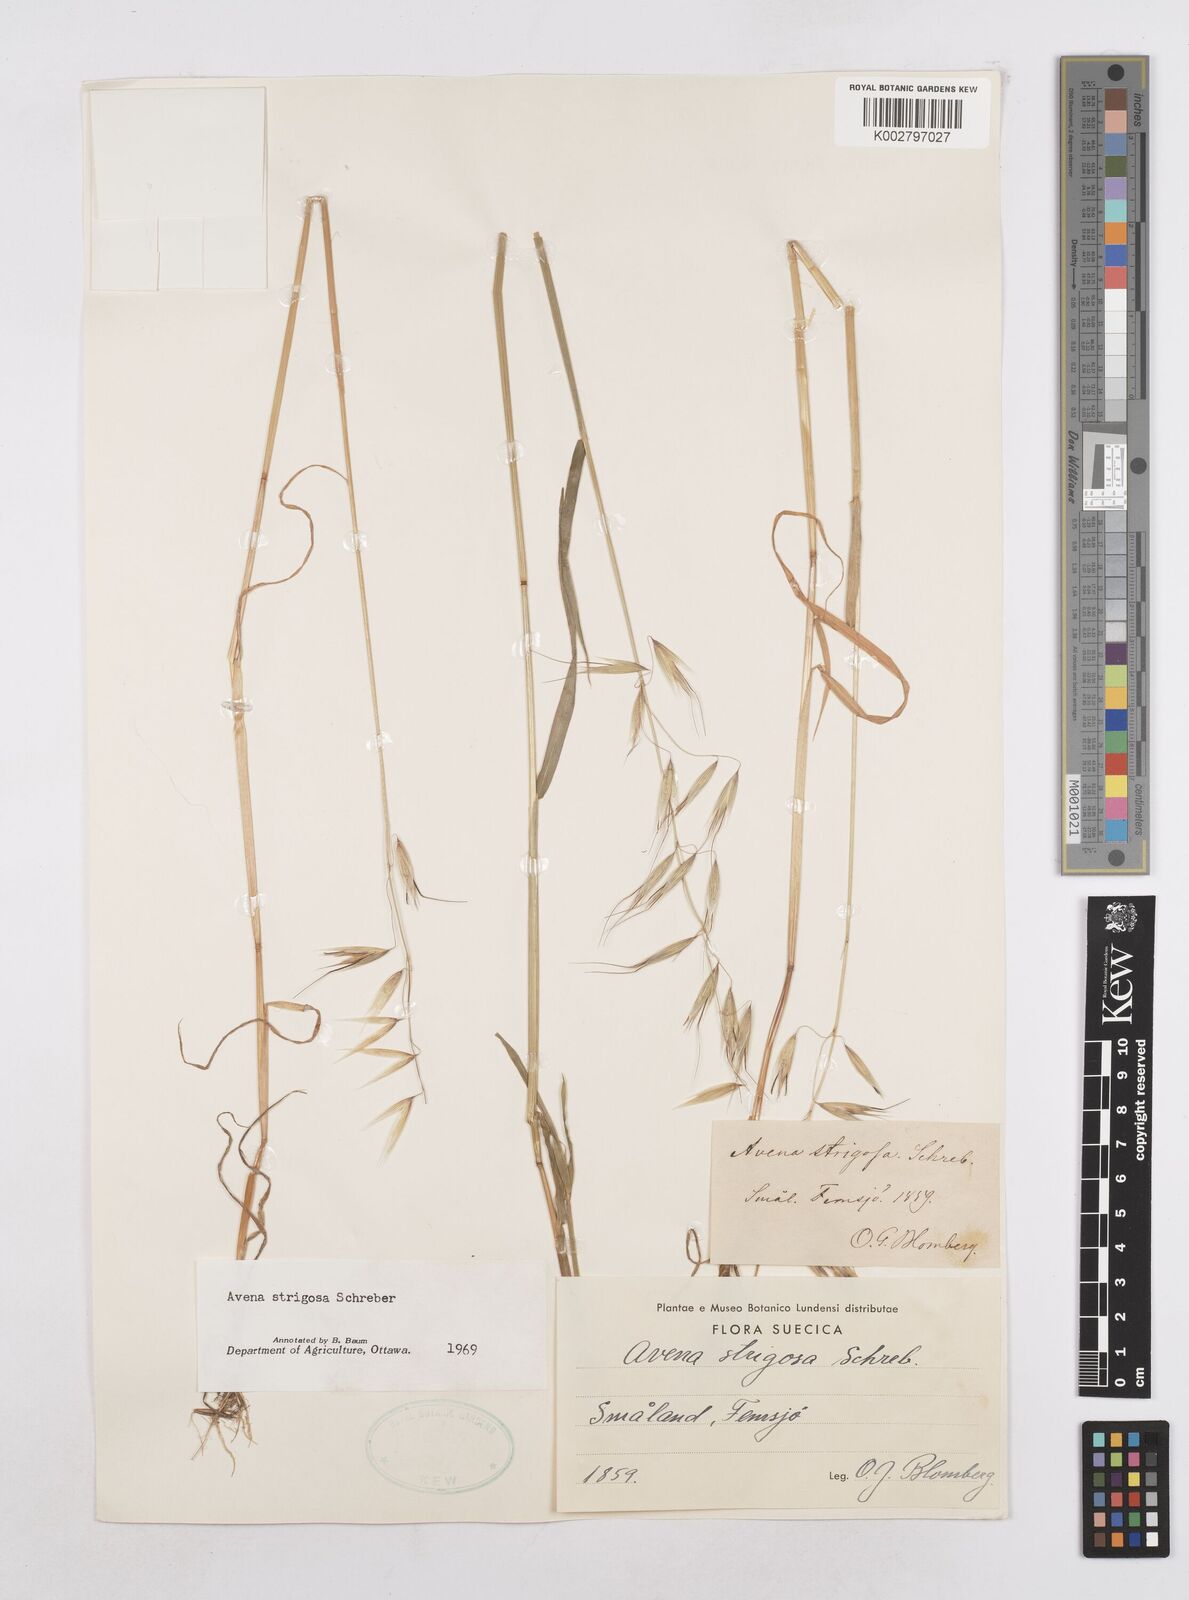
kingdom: Plantae
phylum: Tracheophyta
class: Liliopsida
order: Poales
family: Poaceae
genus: Avena
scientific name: Avena strigosa
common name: Bristle oat
